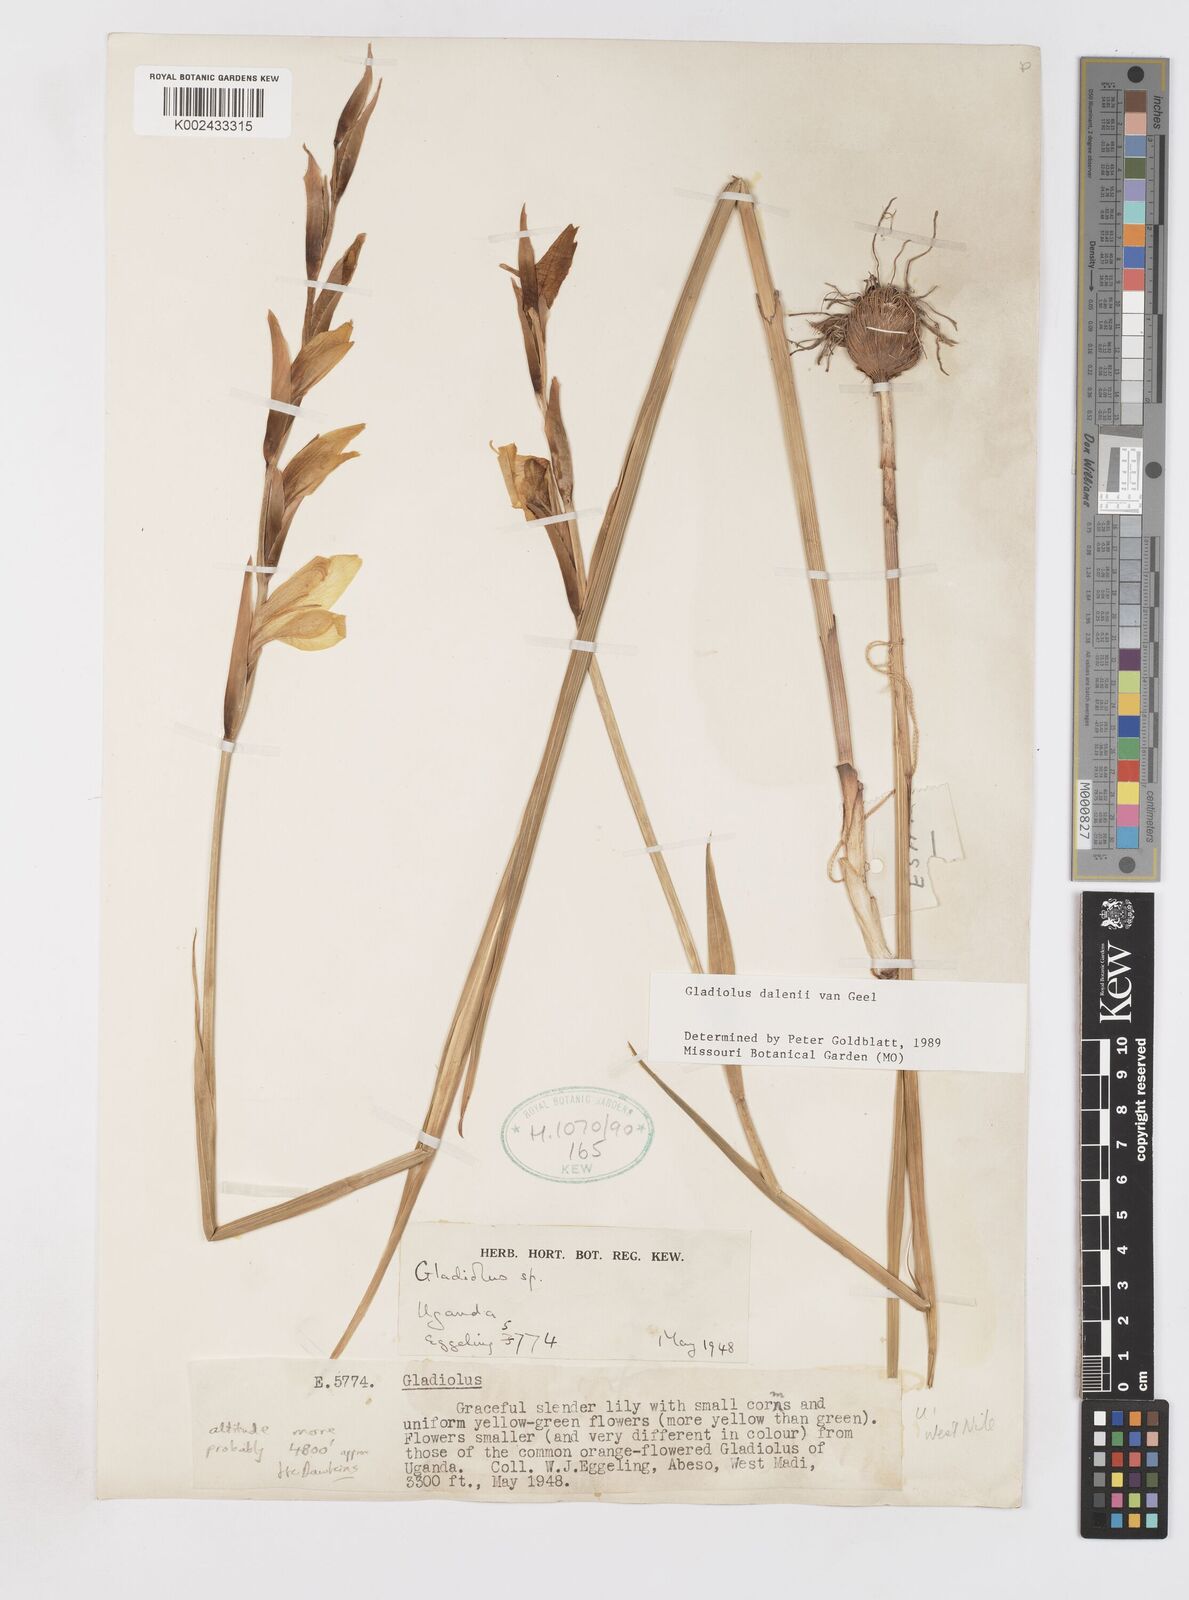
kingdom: Plantae
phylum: Tracheophyta
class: Liliopsida
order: Asparagales
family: Iridaceae
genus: Gladiolus
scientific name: Gladiolus dalenii
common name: Cornflag
